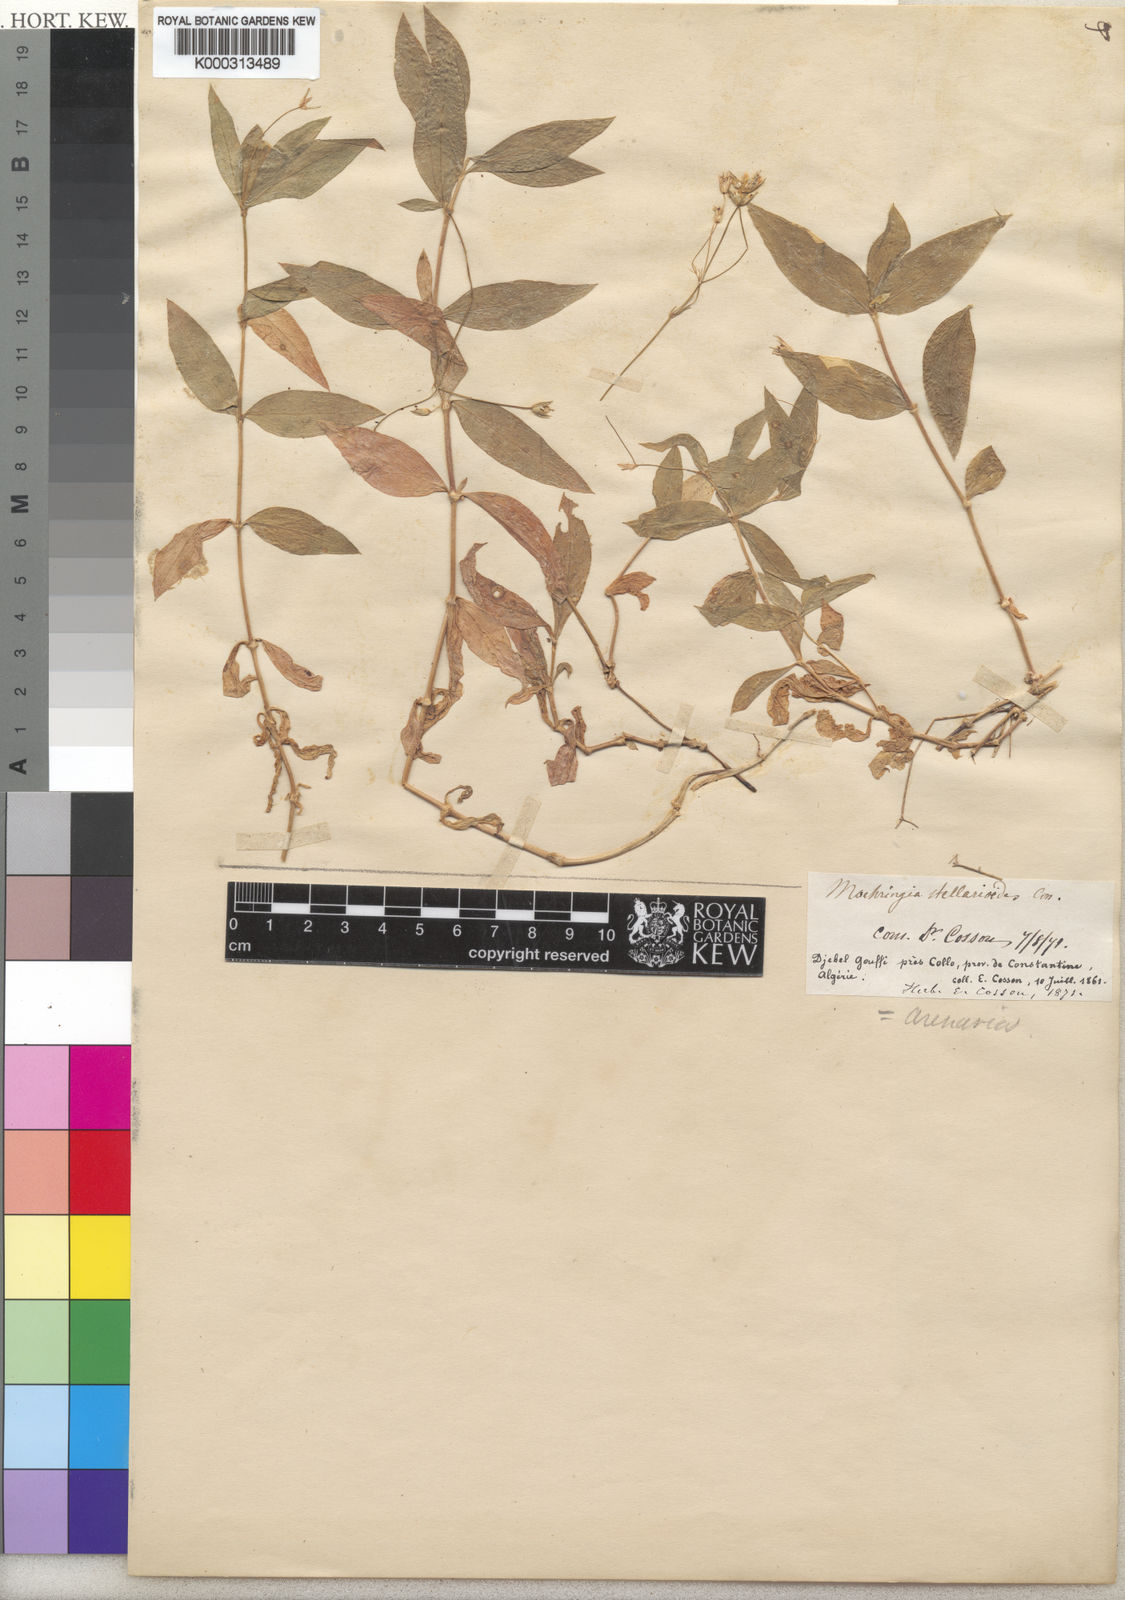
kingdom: Plantae
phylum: Tracheophyta
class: Magnoliopsida
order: Caryophyllales
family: Caryophyllaceae
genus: Moehringia
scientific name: Moehringia stellarioides
